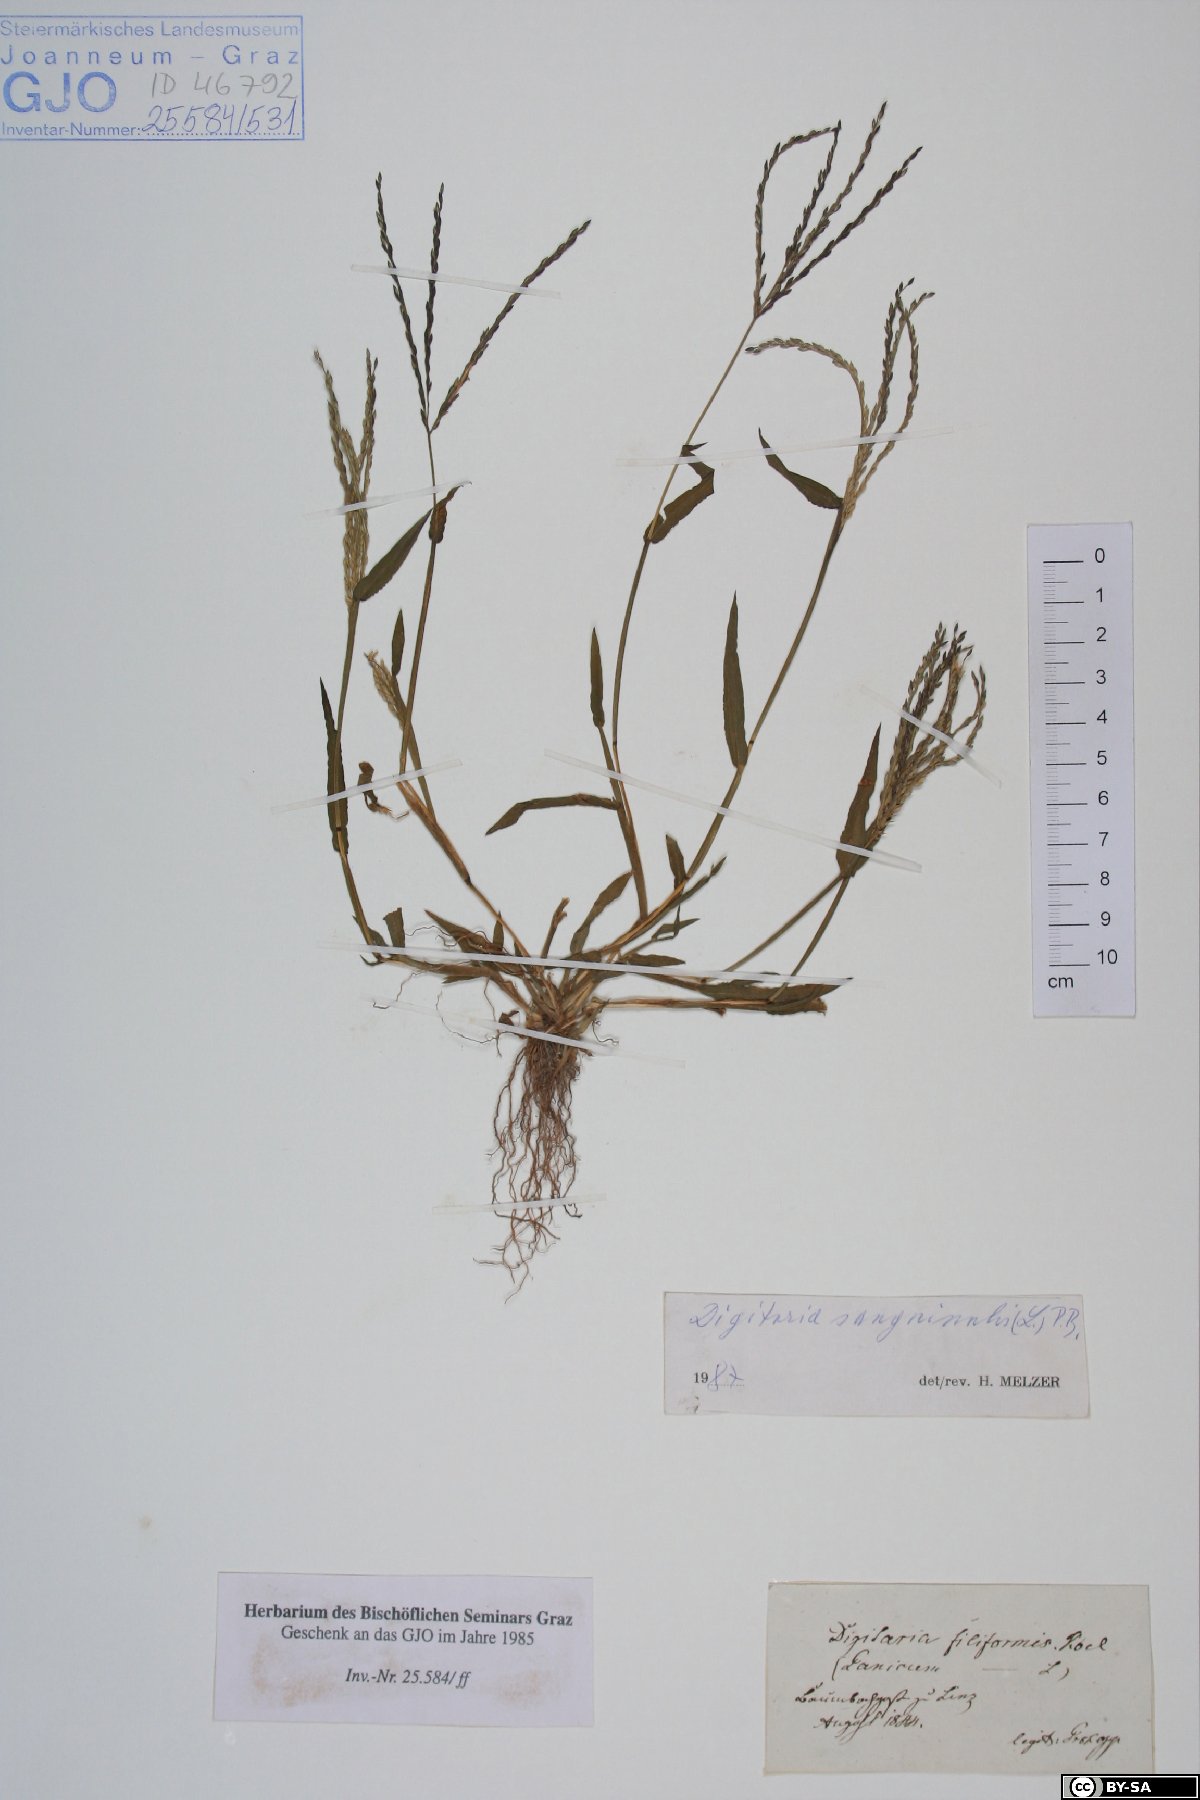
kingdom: Plantae
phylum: Tracheophyta
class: Liliopsida
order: Poales
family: Poaceae
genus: Digitaria
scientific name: Digitaria sanguinalis
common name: Hairy crabgrass
